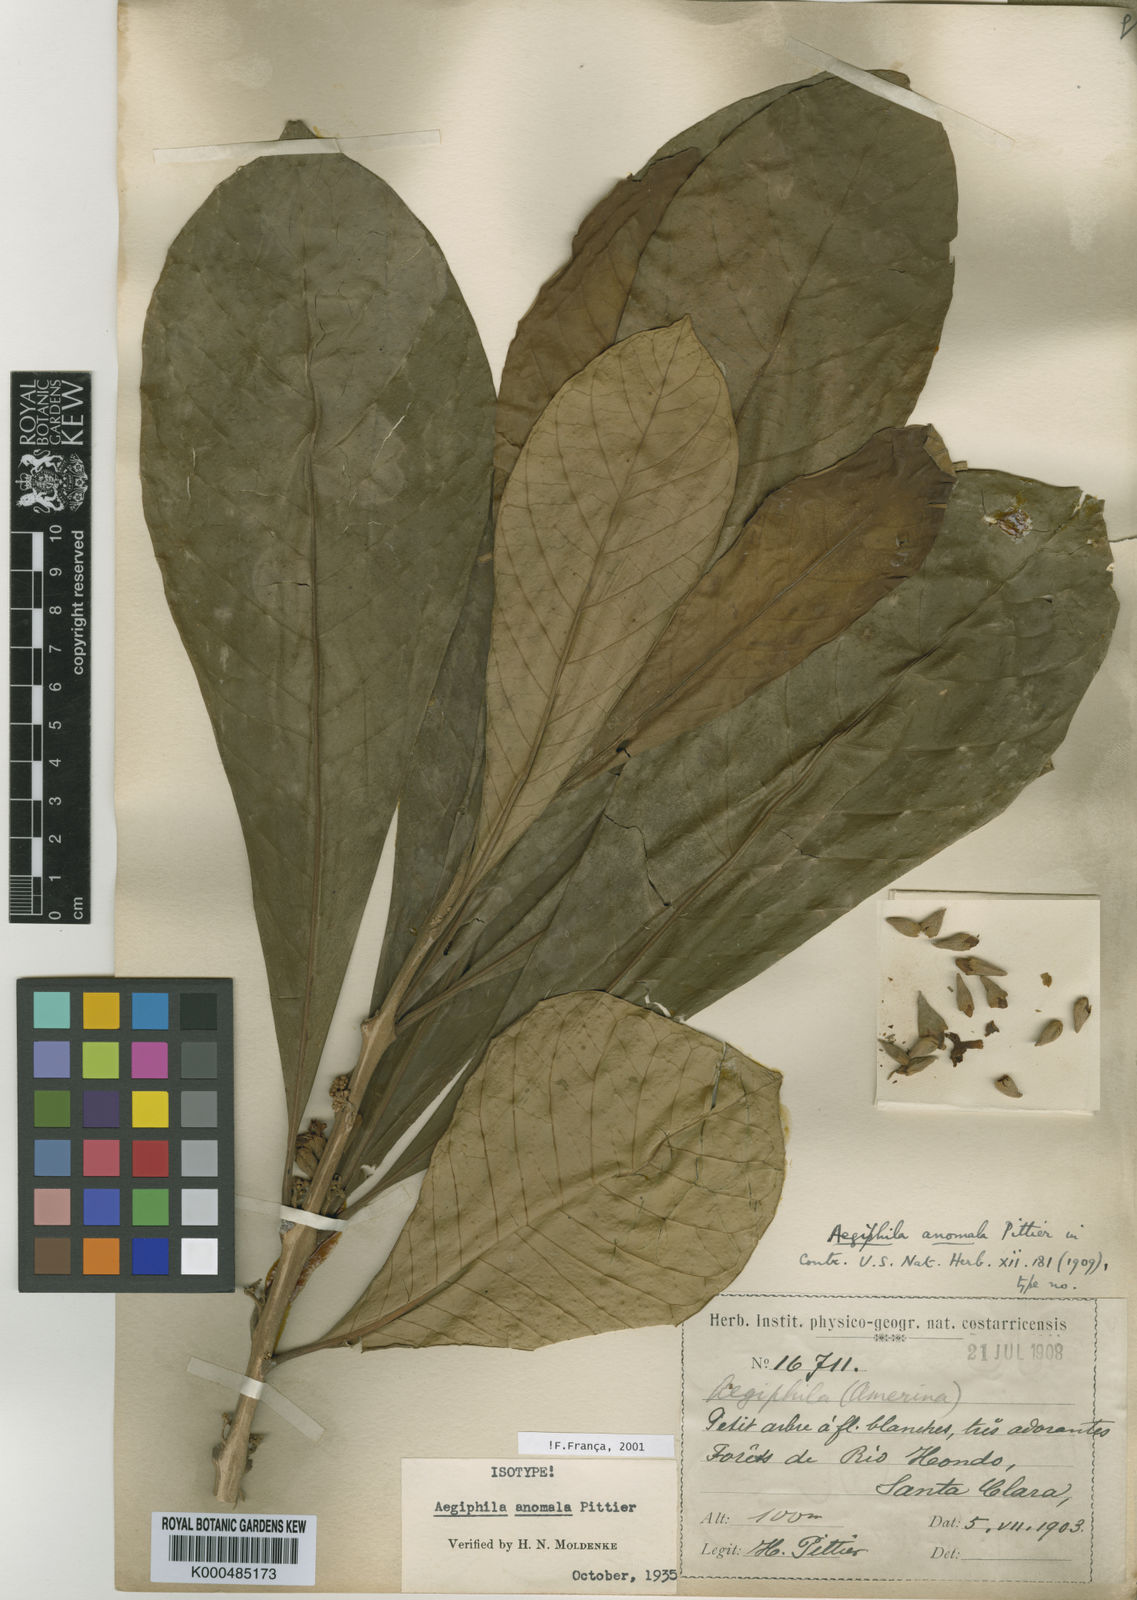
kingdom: Plantae
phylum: Tracheophyta
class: Magnoliopsida
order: Lamiales
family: Lamiaceae
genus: Aegiphila
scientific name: Aegiphila anomala
